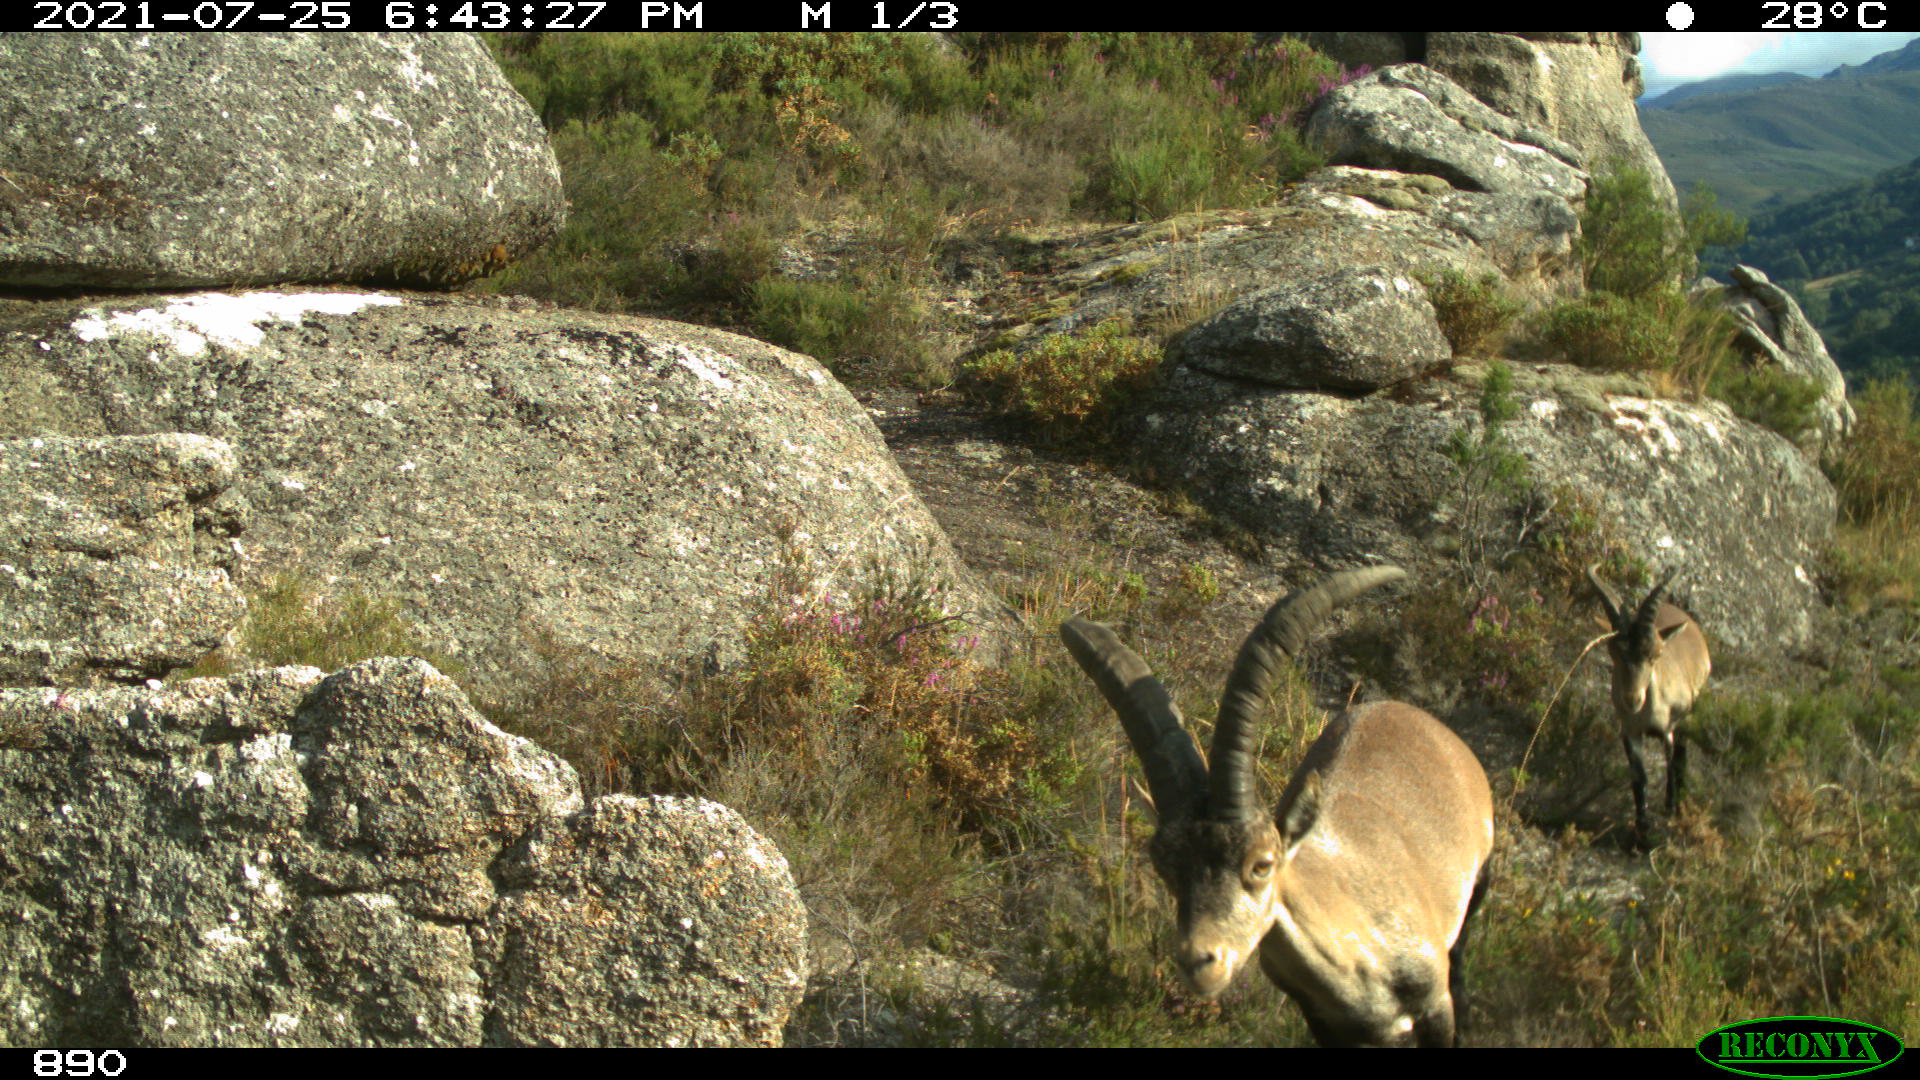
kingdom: Animalia
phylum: Chordata
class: Mammalia
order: Artiodactyla
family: Bovidae
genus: Capra
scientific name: Capra pyrenaica
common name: Spanish ibex
